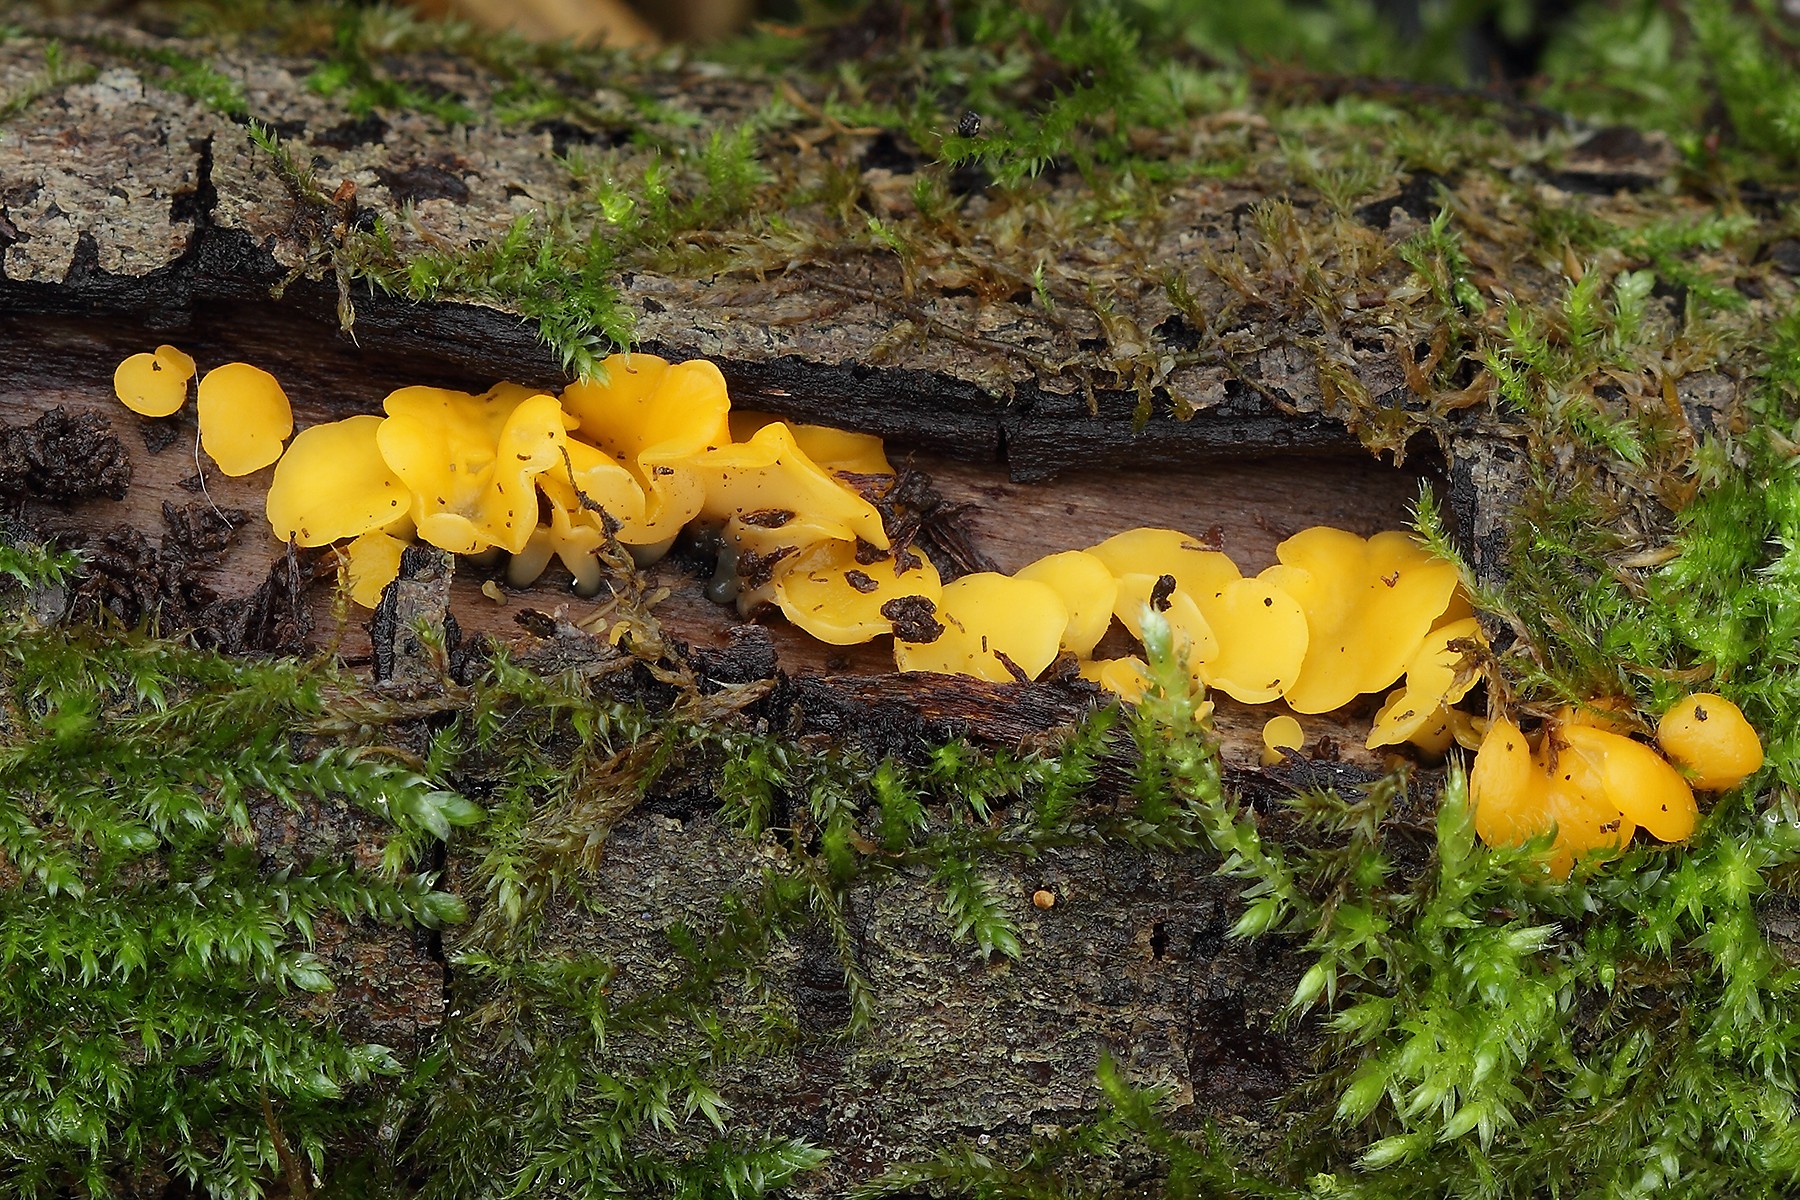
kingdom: Fungi
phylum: Ascomycota
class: Leotiomycetes
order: Helotiales
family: Helotiaceae
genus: Hymenoscyphus
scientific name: Hymenoscyphus calyculus
